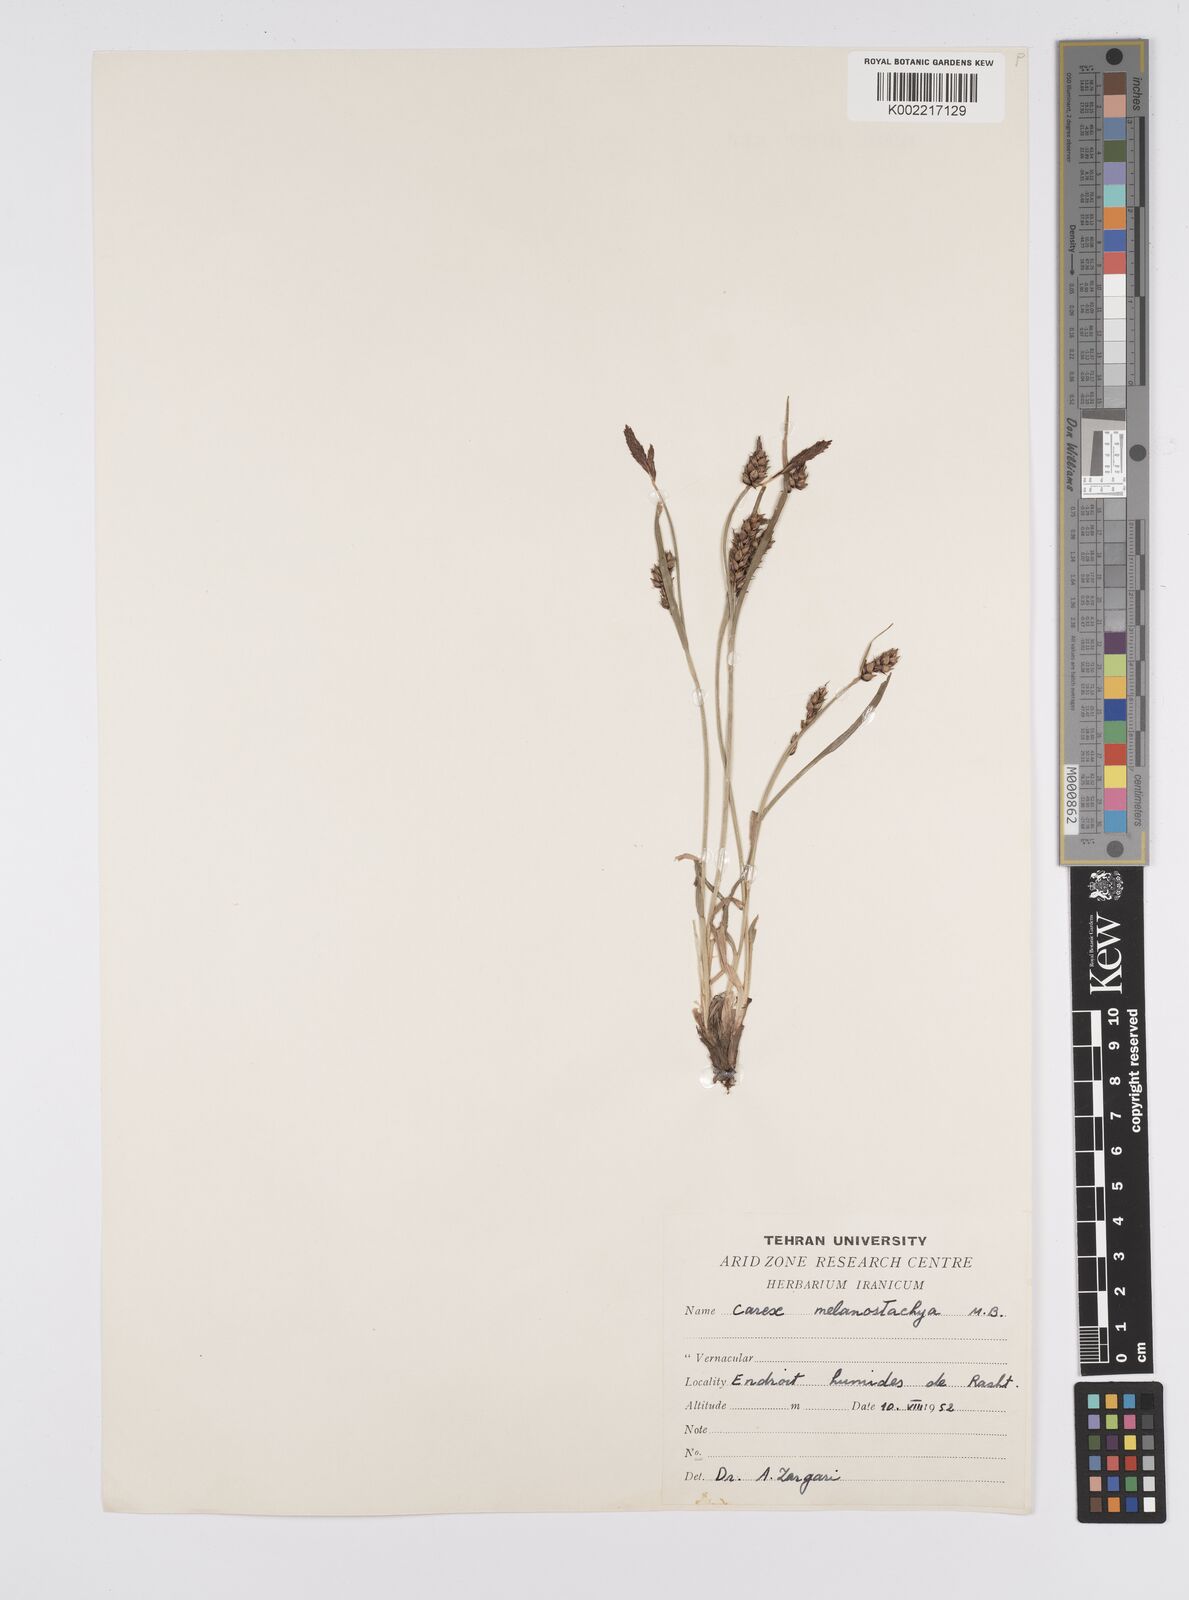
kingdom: Plantae
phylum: Tracheophyta
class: Liliopsida
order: Poales
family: Cyperaceae
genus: Carex
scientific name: Carex melanostachya
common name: Black-spiked sedge
